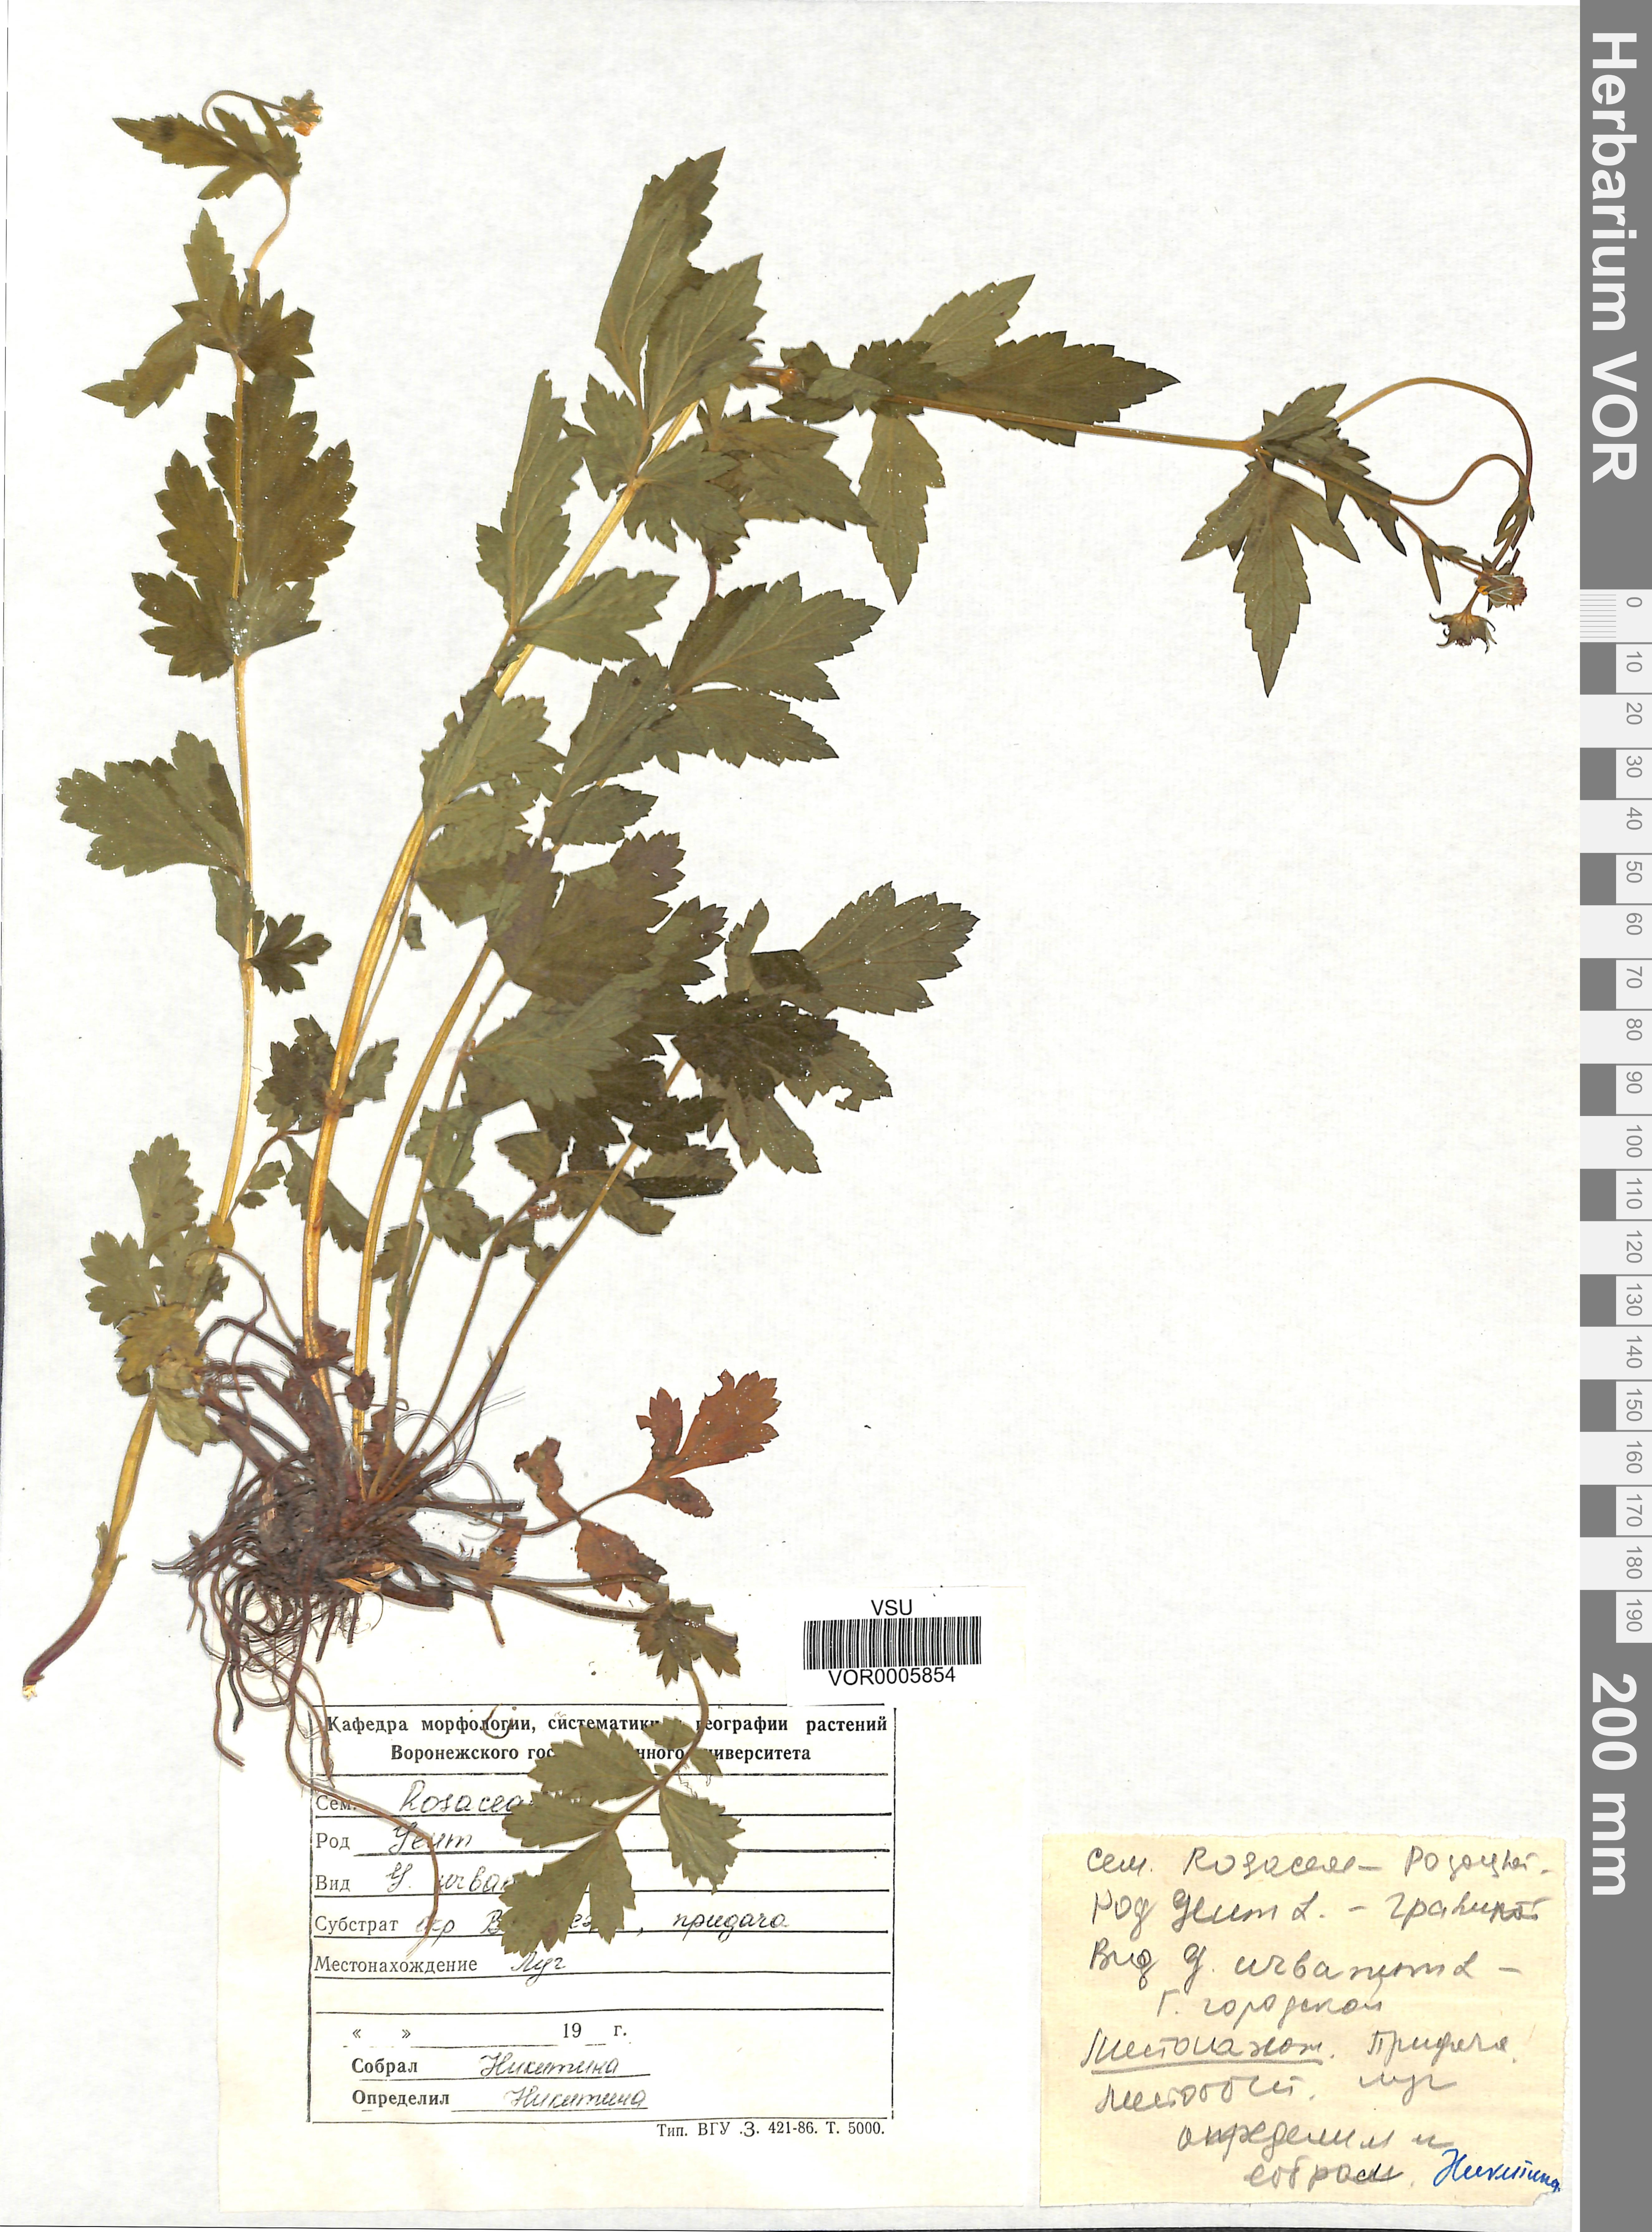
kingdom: Plantae
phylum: Tracheophyta
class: Magnoliopsida
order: Rosales
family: Rosaceae
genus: Geum
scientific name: Geum urbanum
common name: Wood avens
